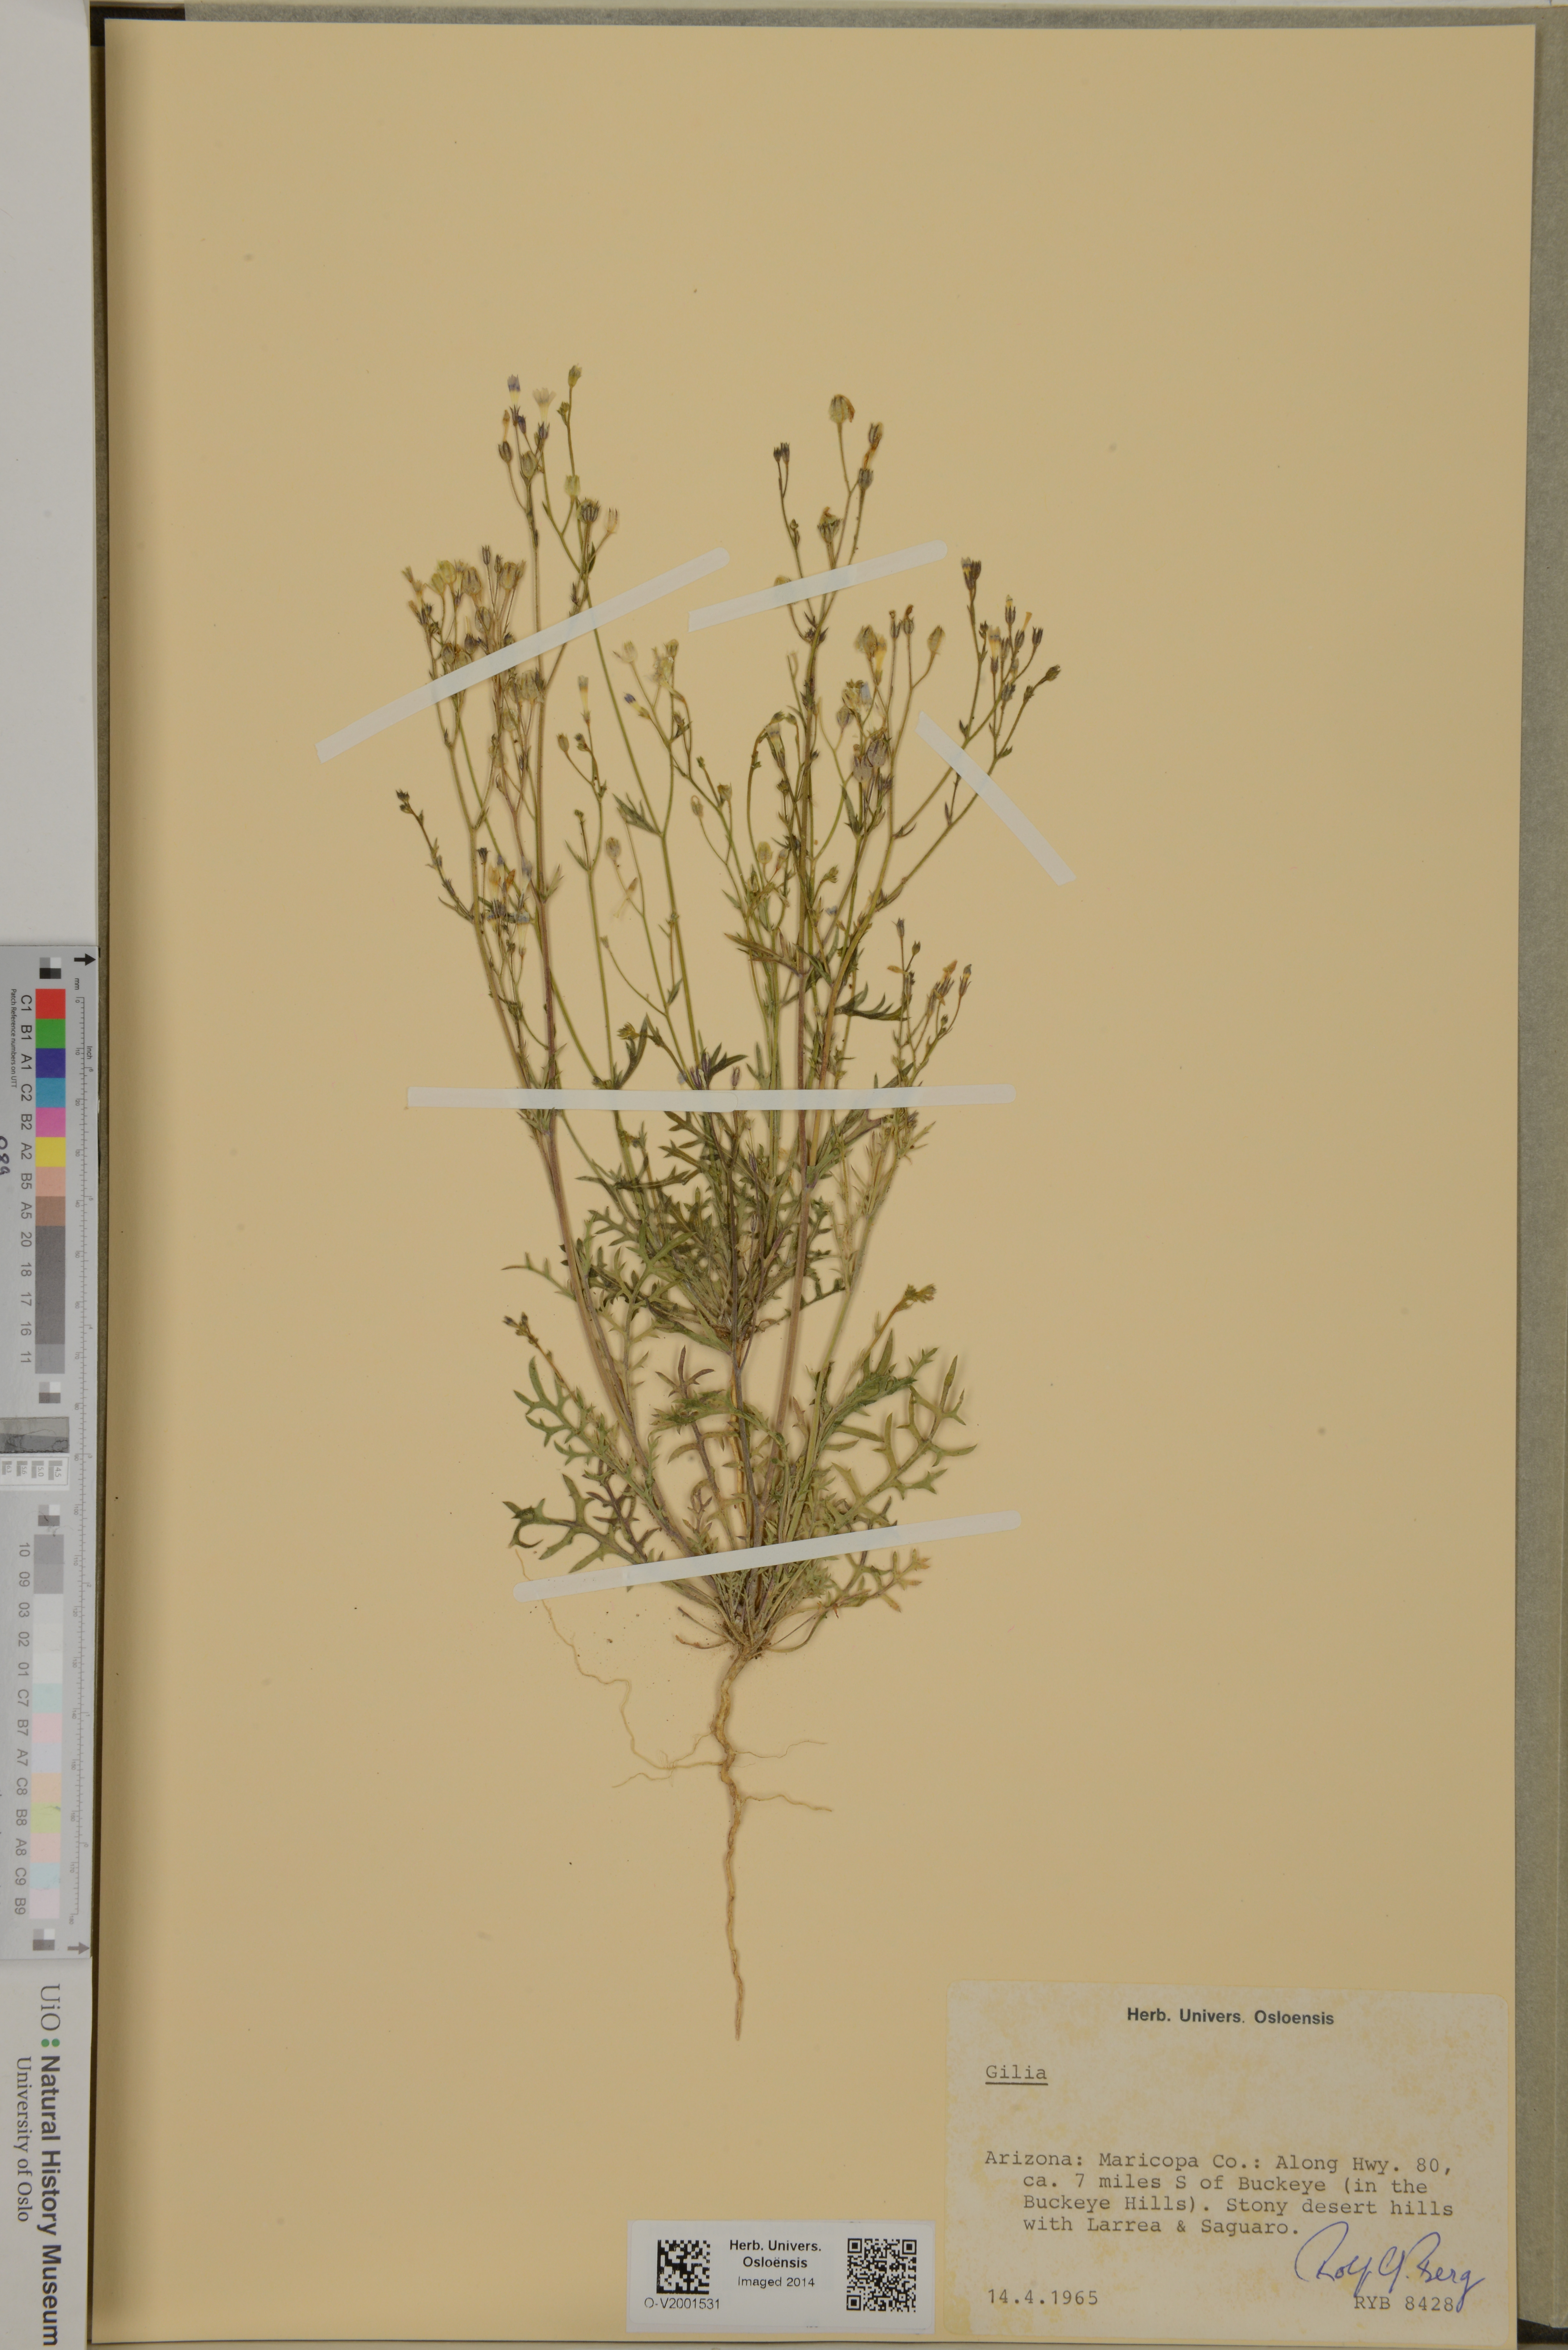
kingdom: Plantae
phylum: Tracheophyta
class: Magnoliopsida
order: Ericales
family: Polemoniaceae
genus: Gilia
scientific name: Gilia
